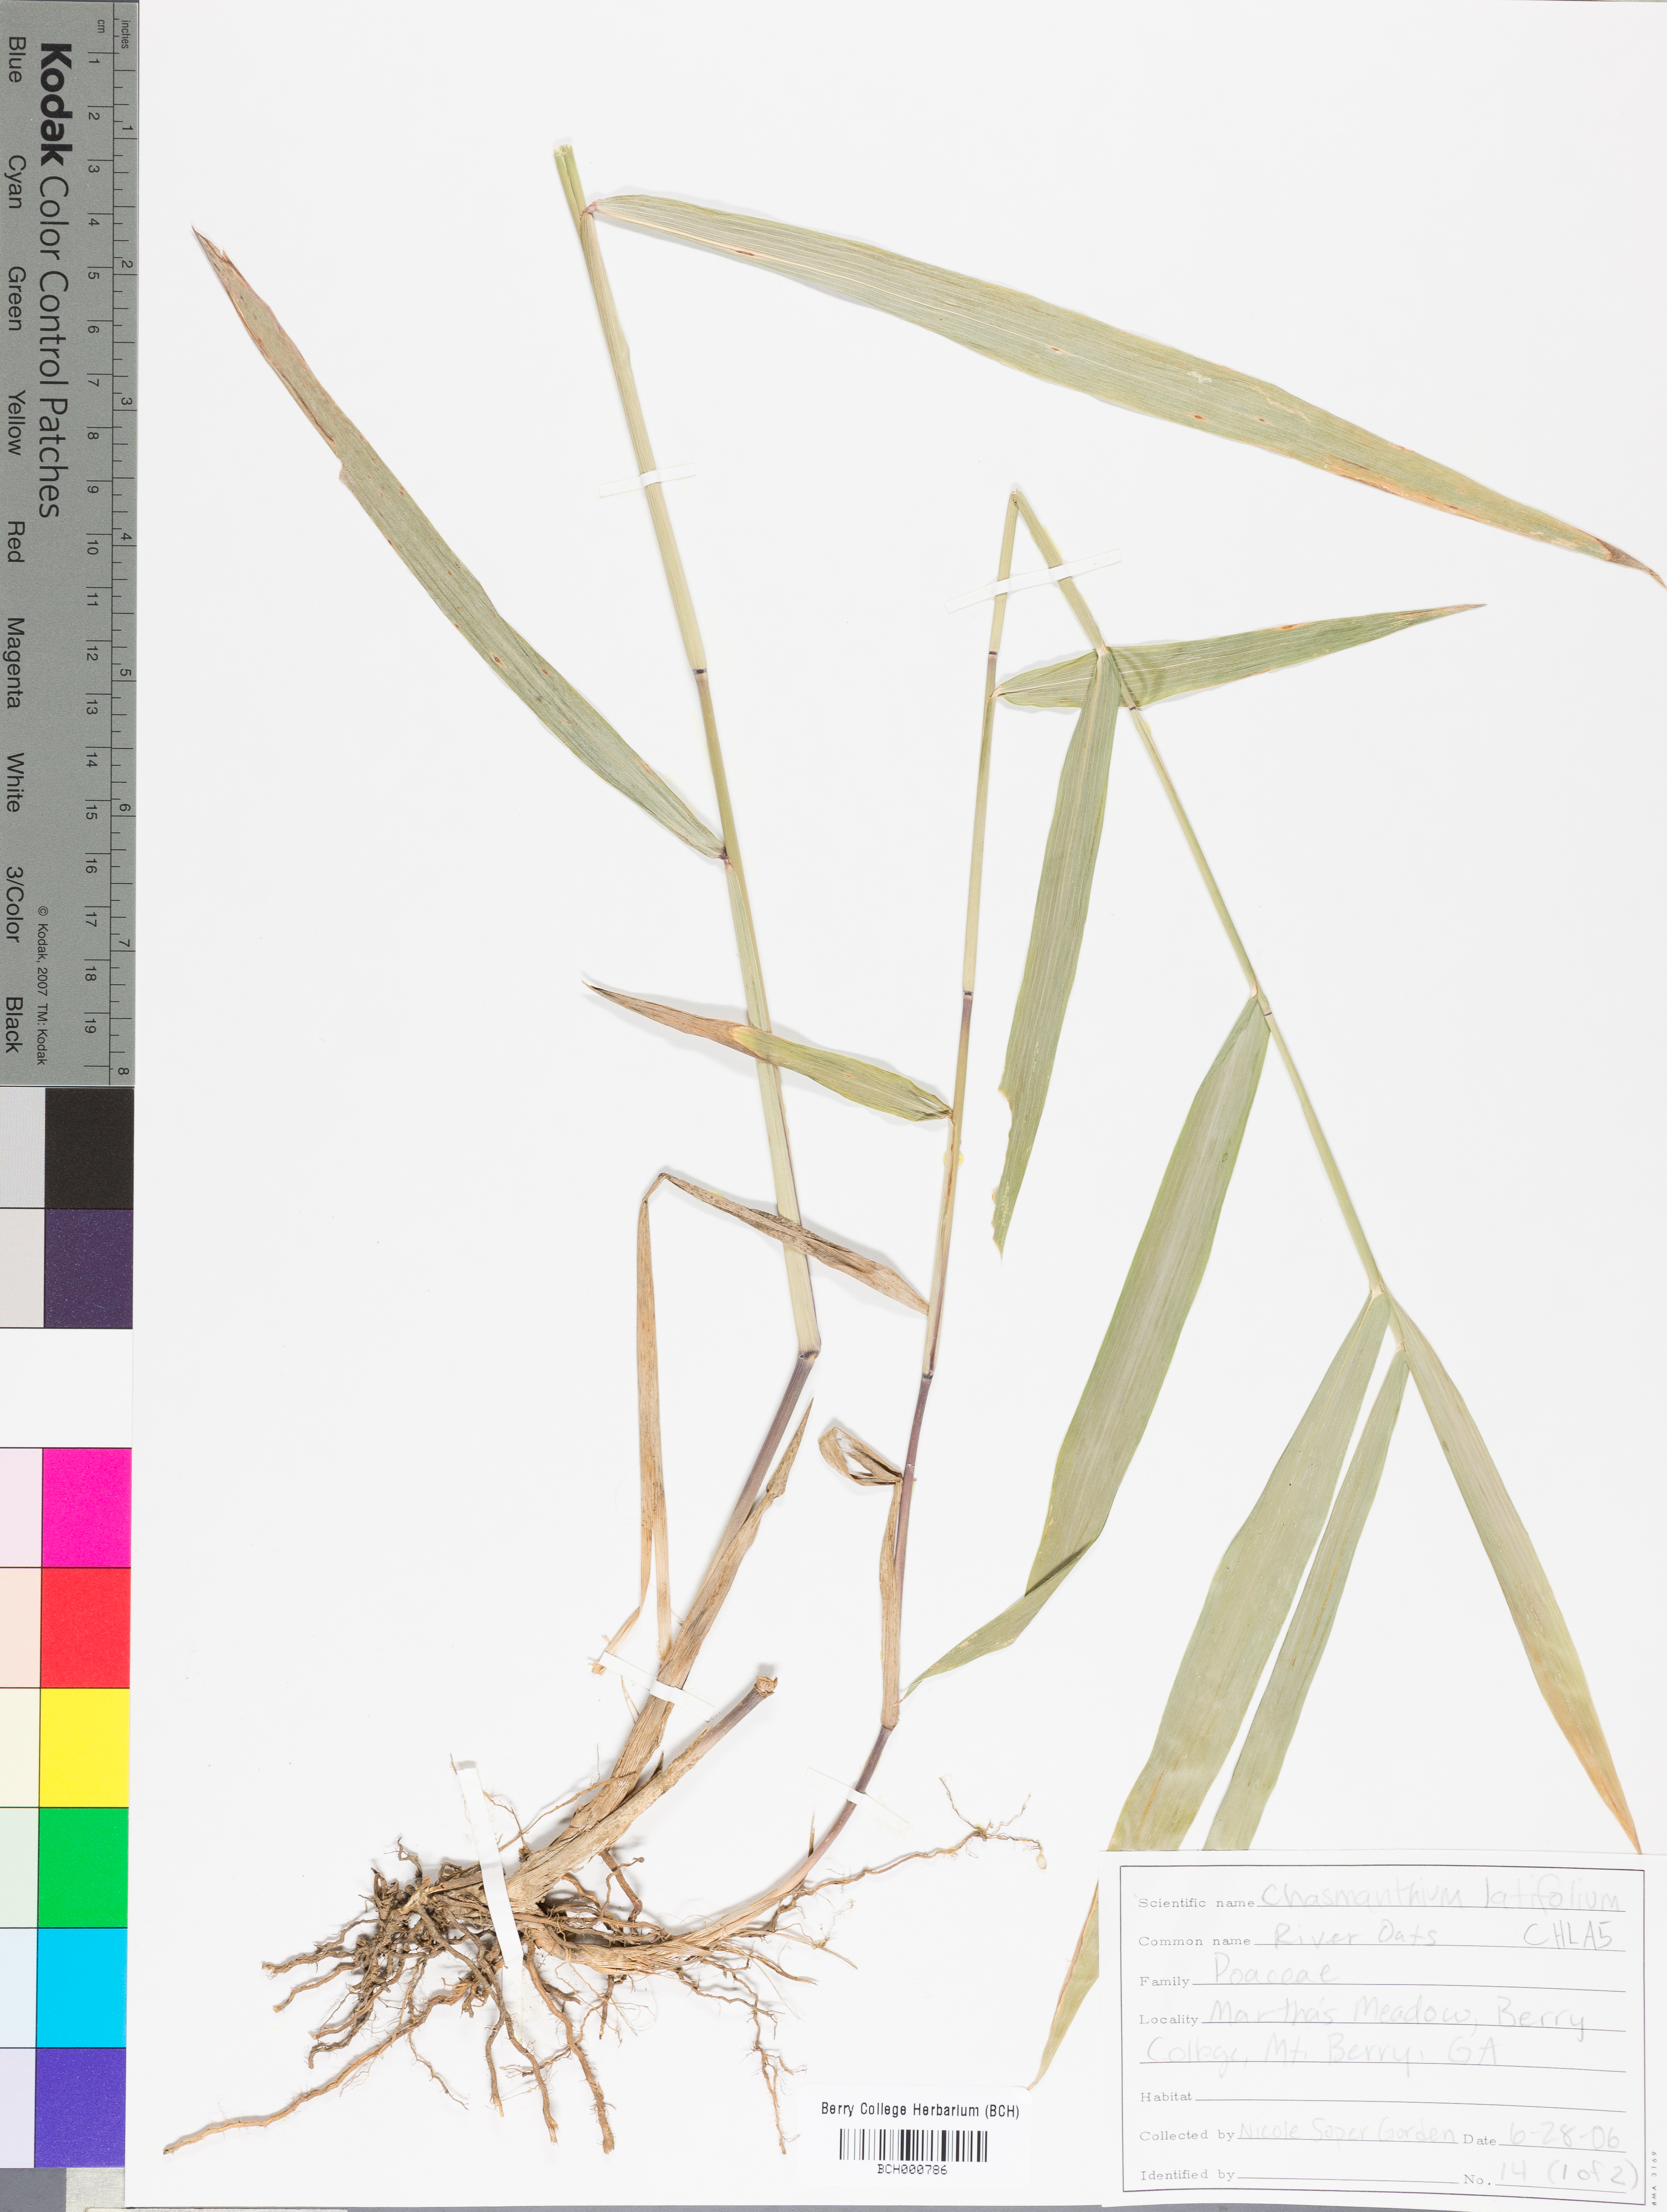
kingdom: Plantae
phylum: Tracheophyta
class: Liliopsida
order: Poales
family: Poaceae
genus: Chasmanthium
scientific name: Chasmanthium latifolium
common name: Broad-leaved chasmanthium
